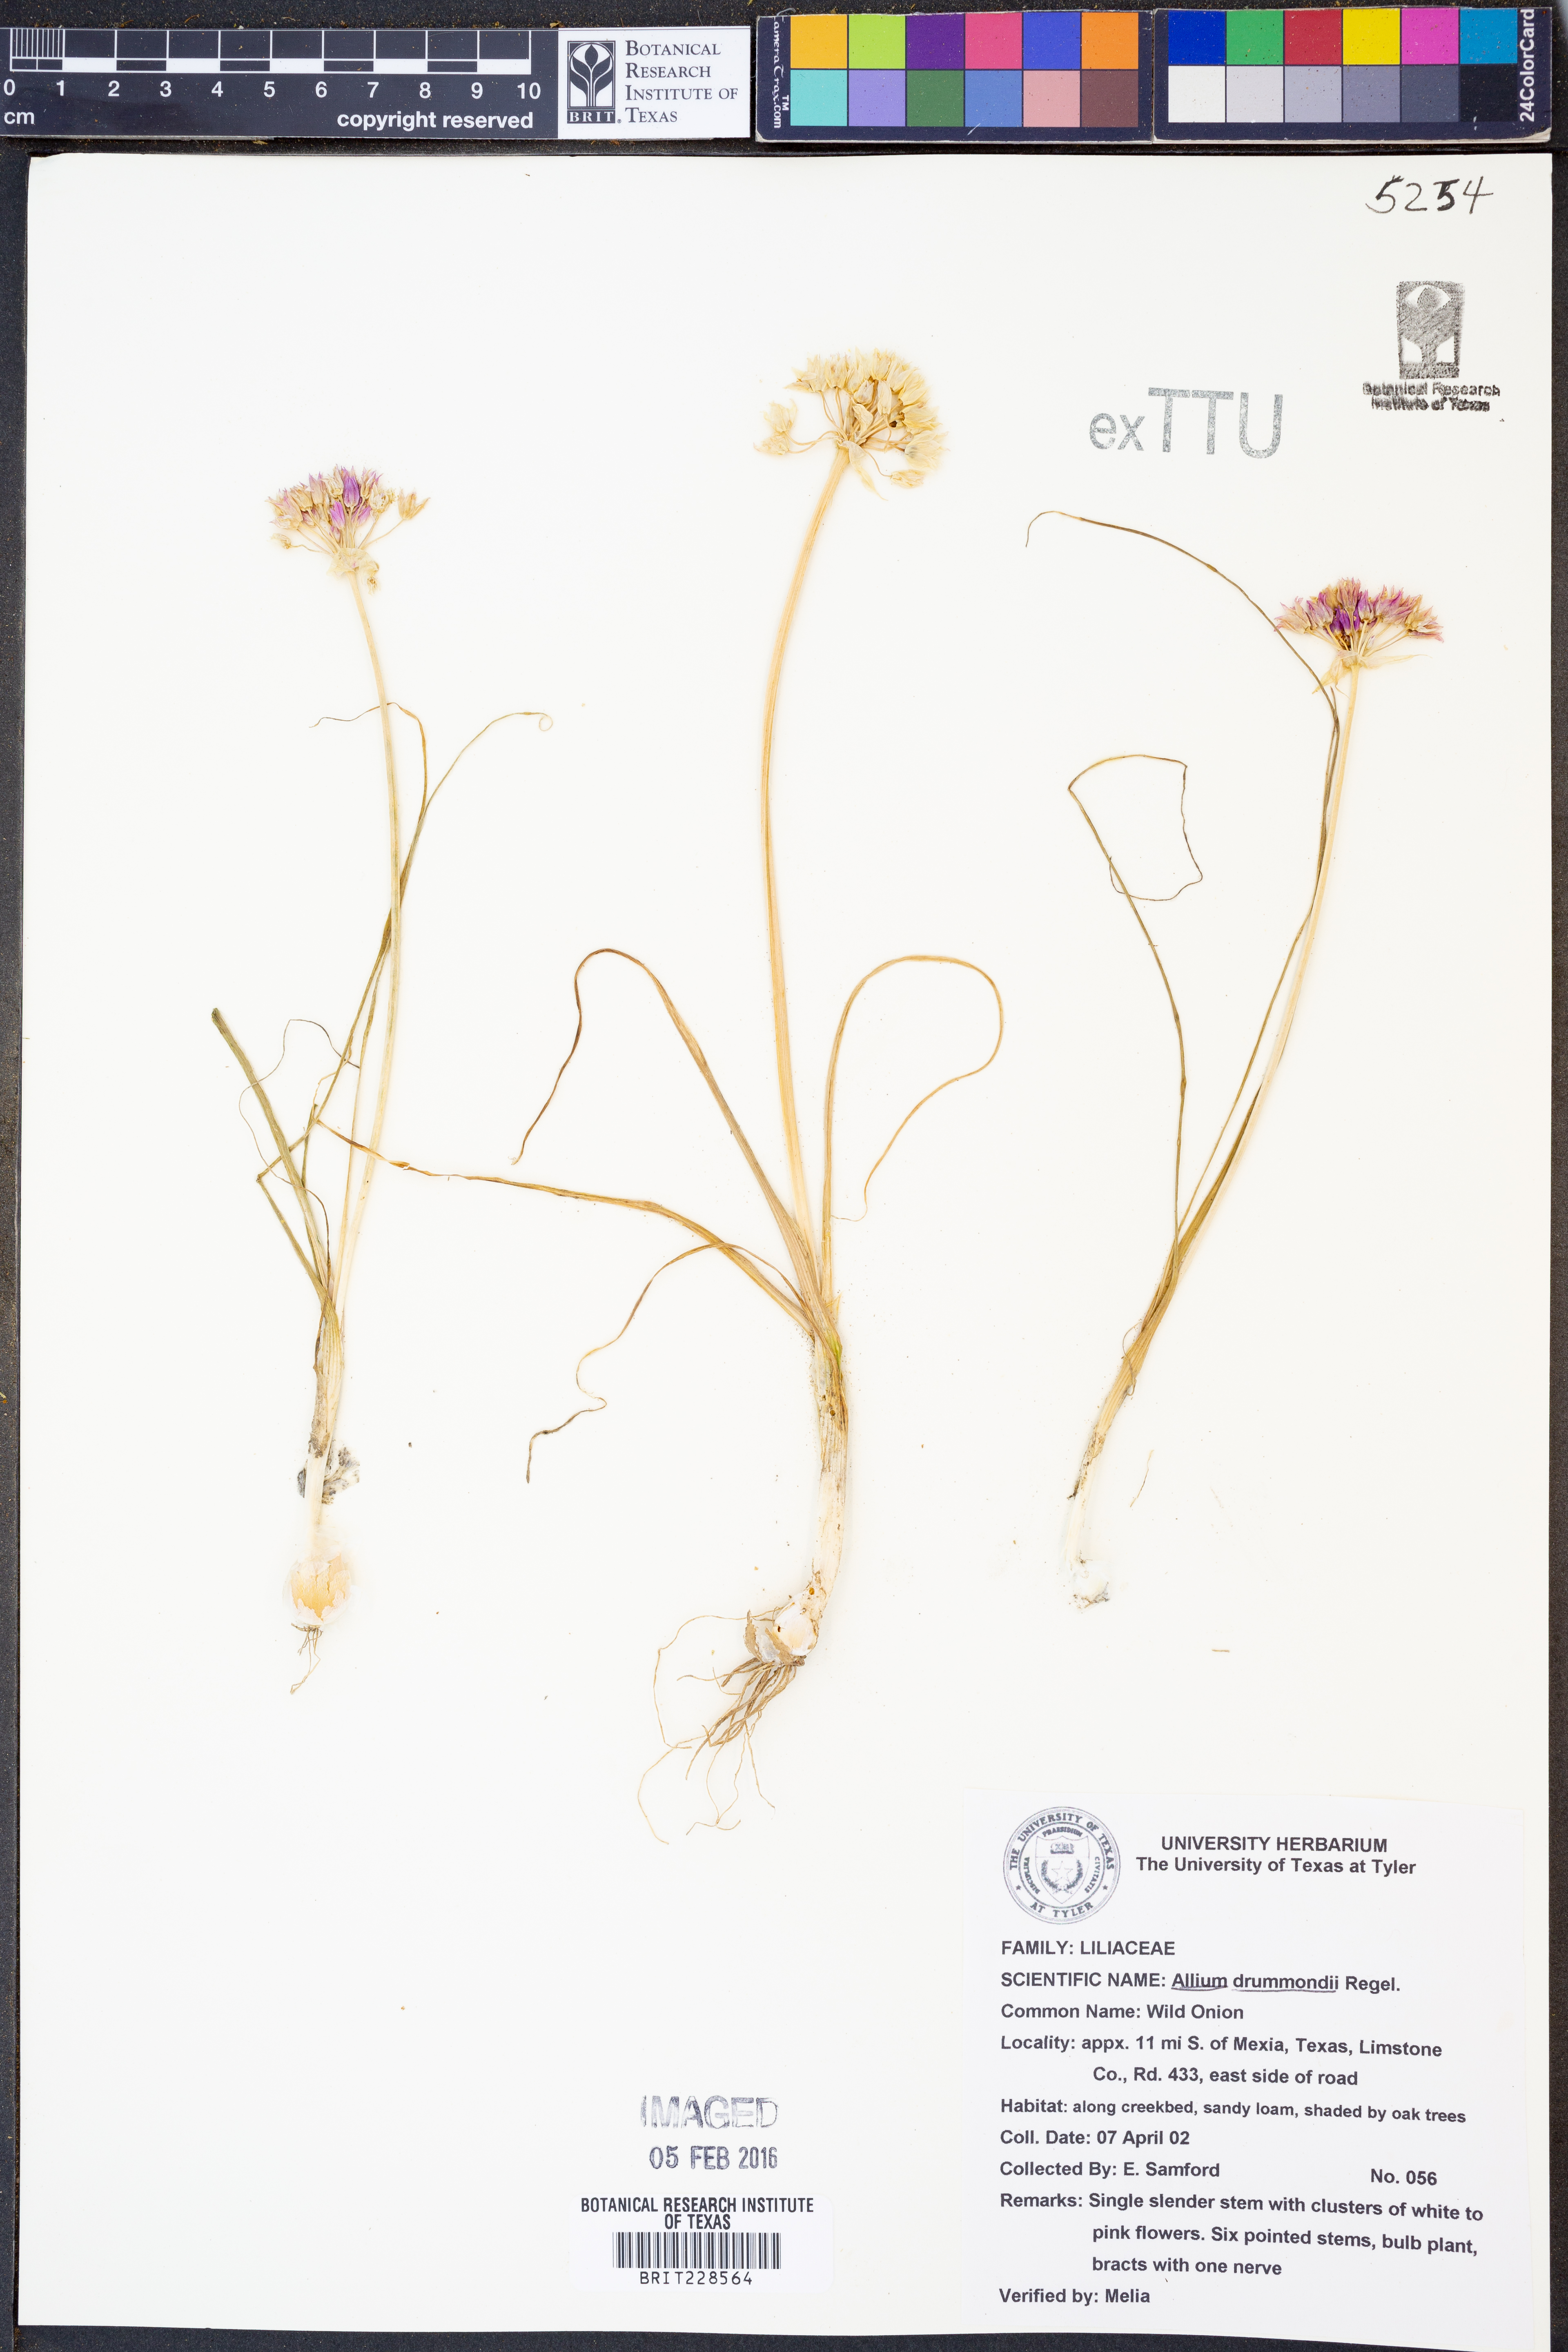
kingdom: Plantae
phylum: Tracheophyta
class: Liliopsida
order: Asparagales
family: Amaryllidaceae
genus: Allium
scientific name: Allium drummondii
